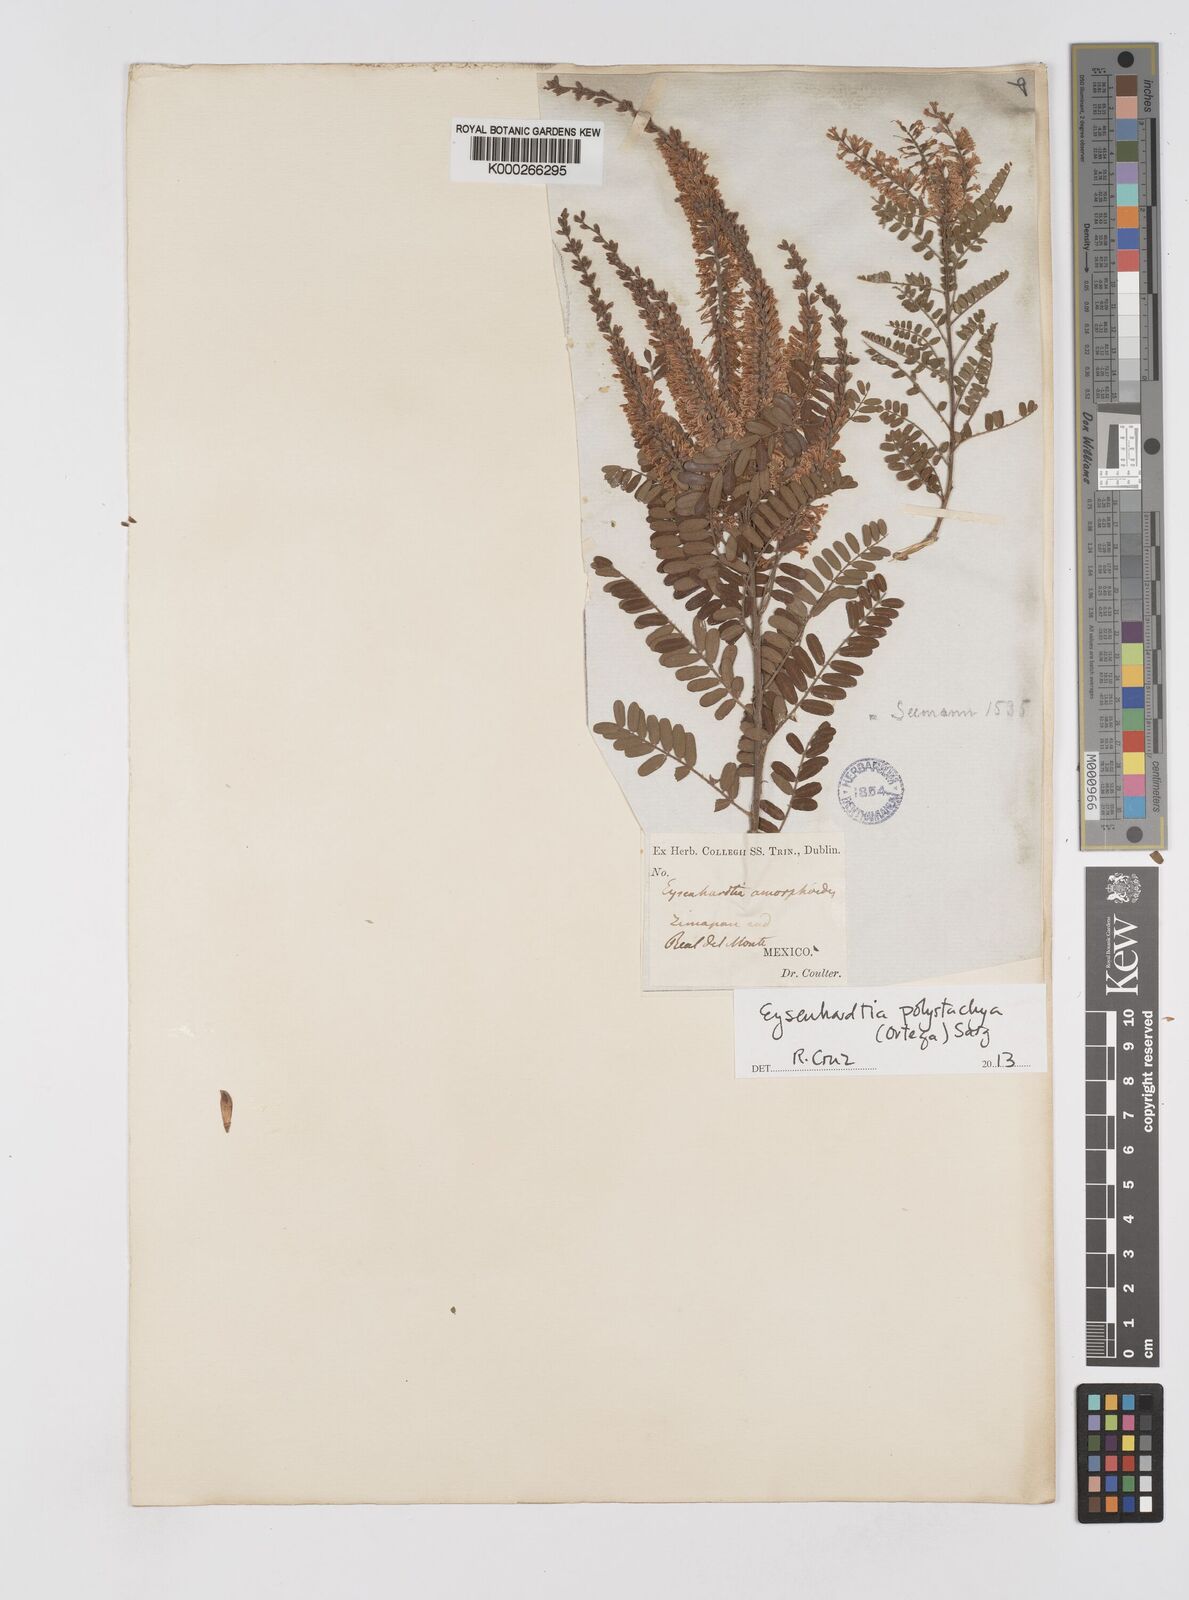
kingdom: Plantae
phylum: Tracheophyta
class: Magnoliopsida
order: Fabales
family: Fabaceae
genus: Eysenhardtia
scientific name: Eysenhardtia polystachya
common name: Kidneywood
